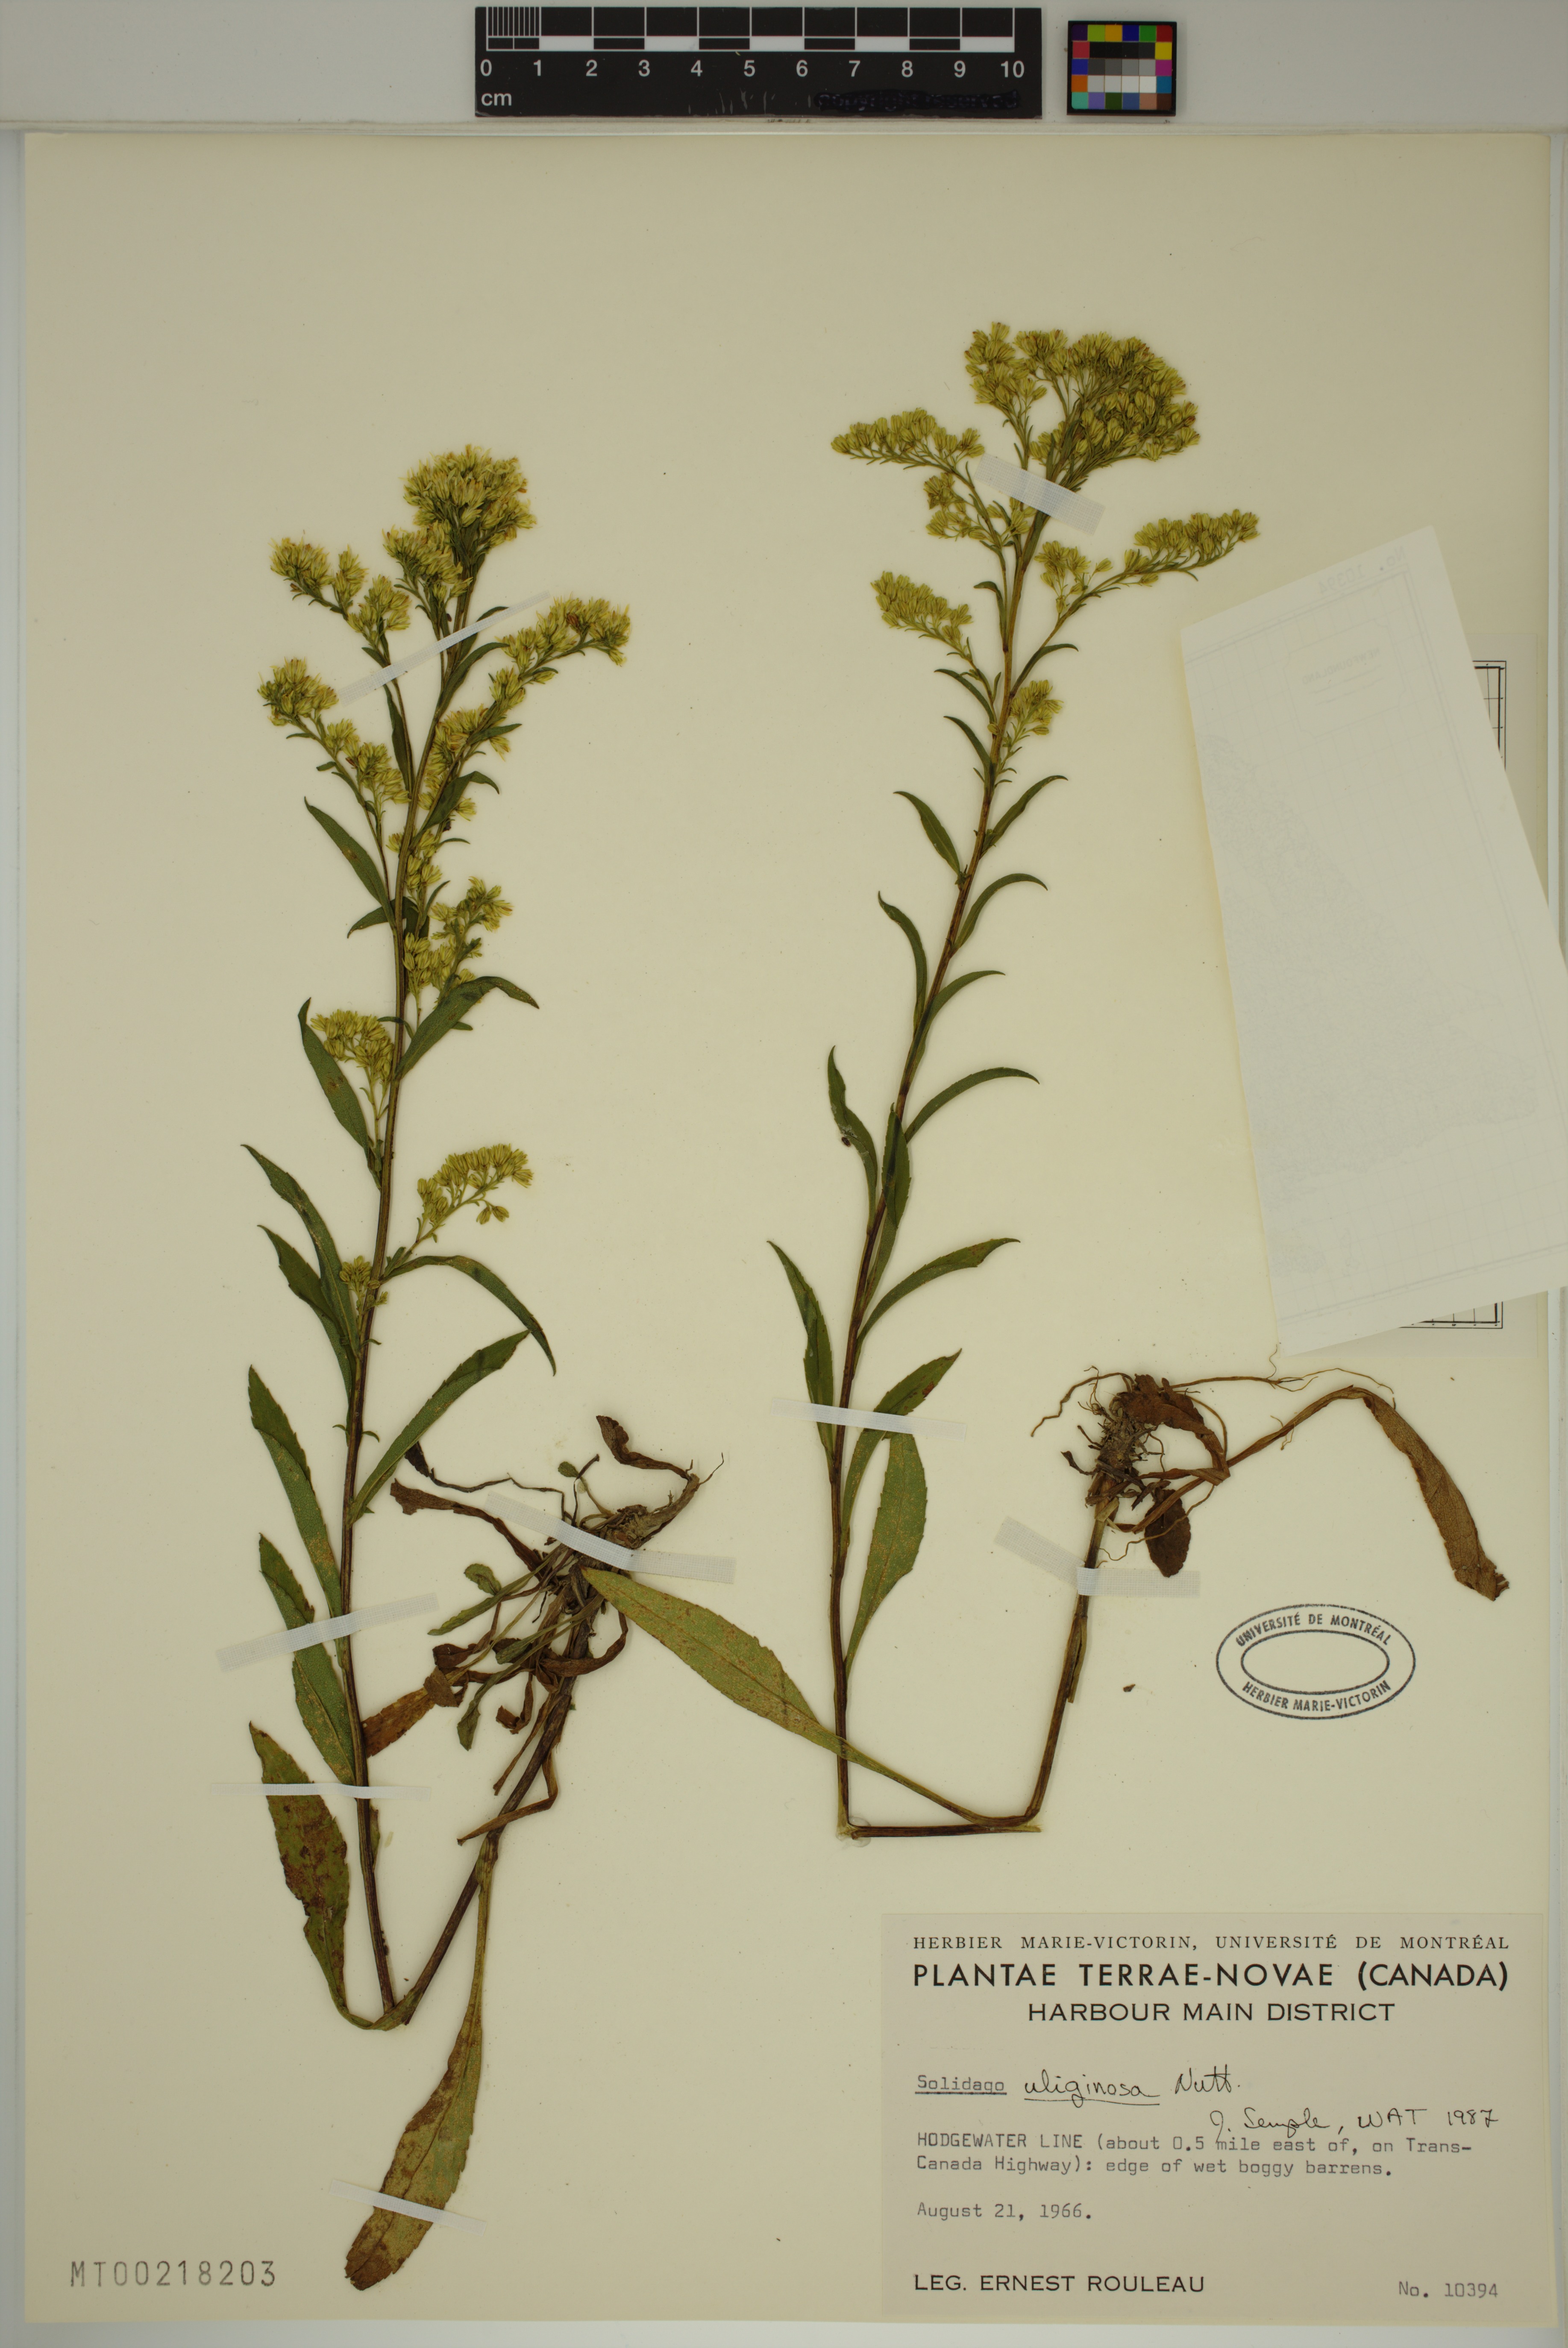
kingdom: Plantae
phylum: Tracheophyta
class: Magnoliopsida
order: Asterales
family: Asteraceae
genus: Solidago
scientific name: Solidago uliginosa
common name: Bog goldenrod
